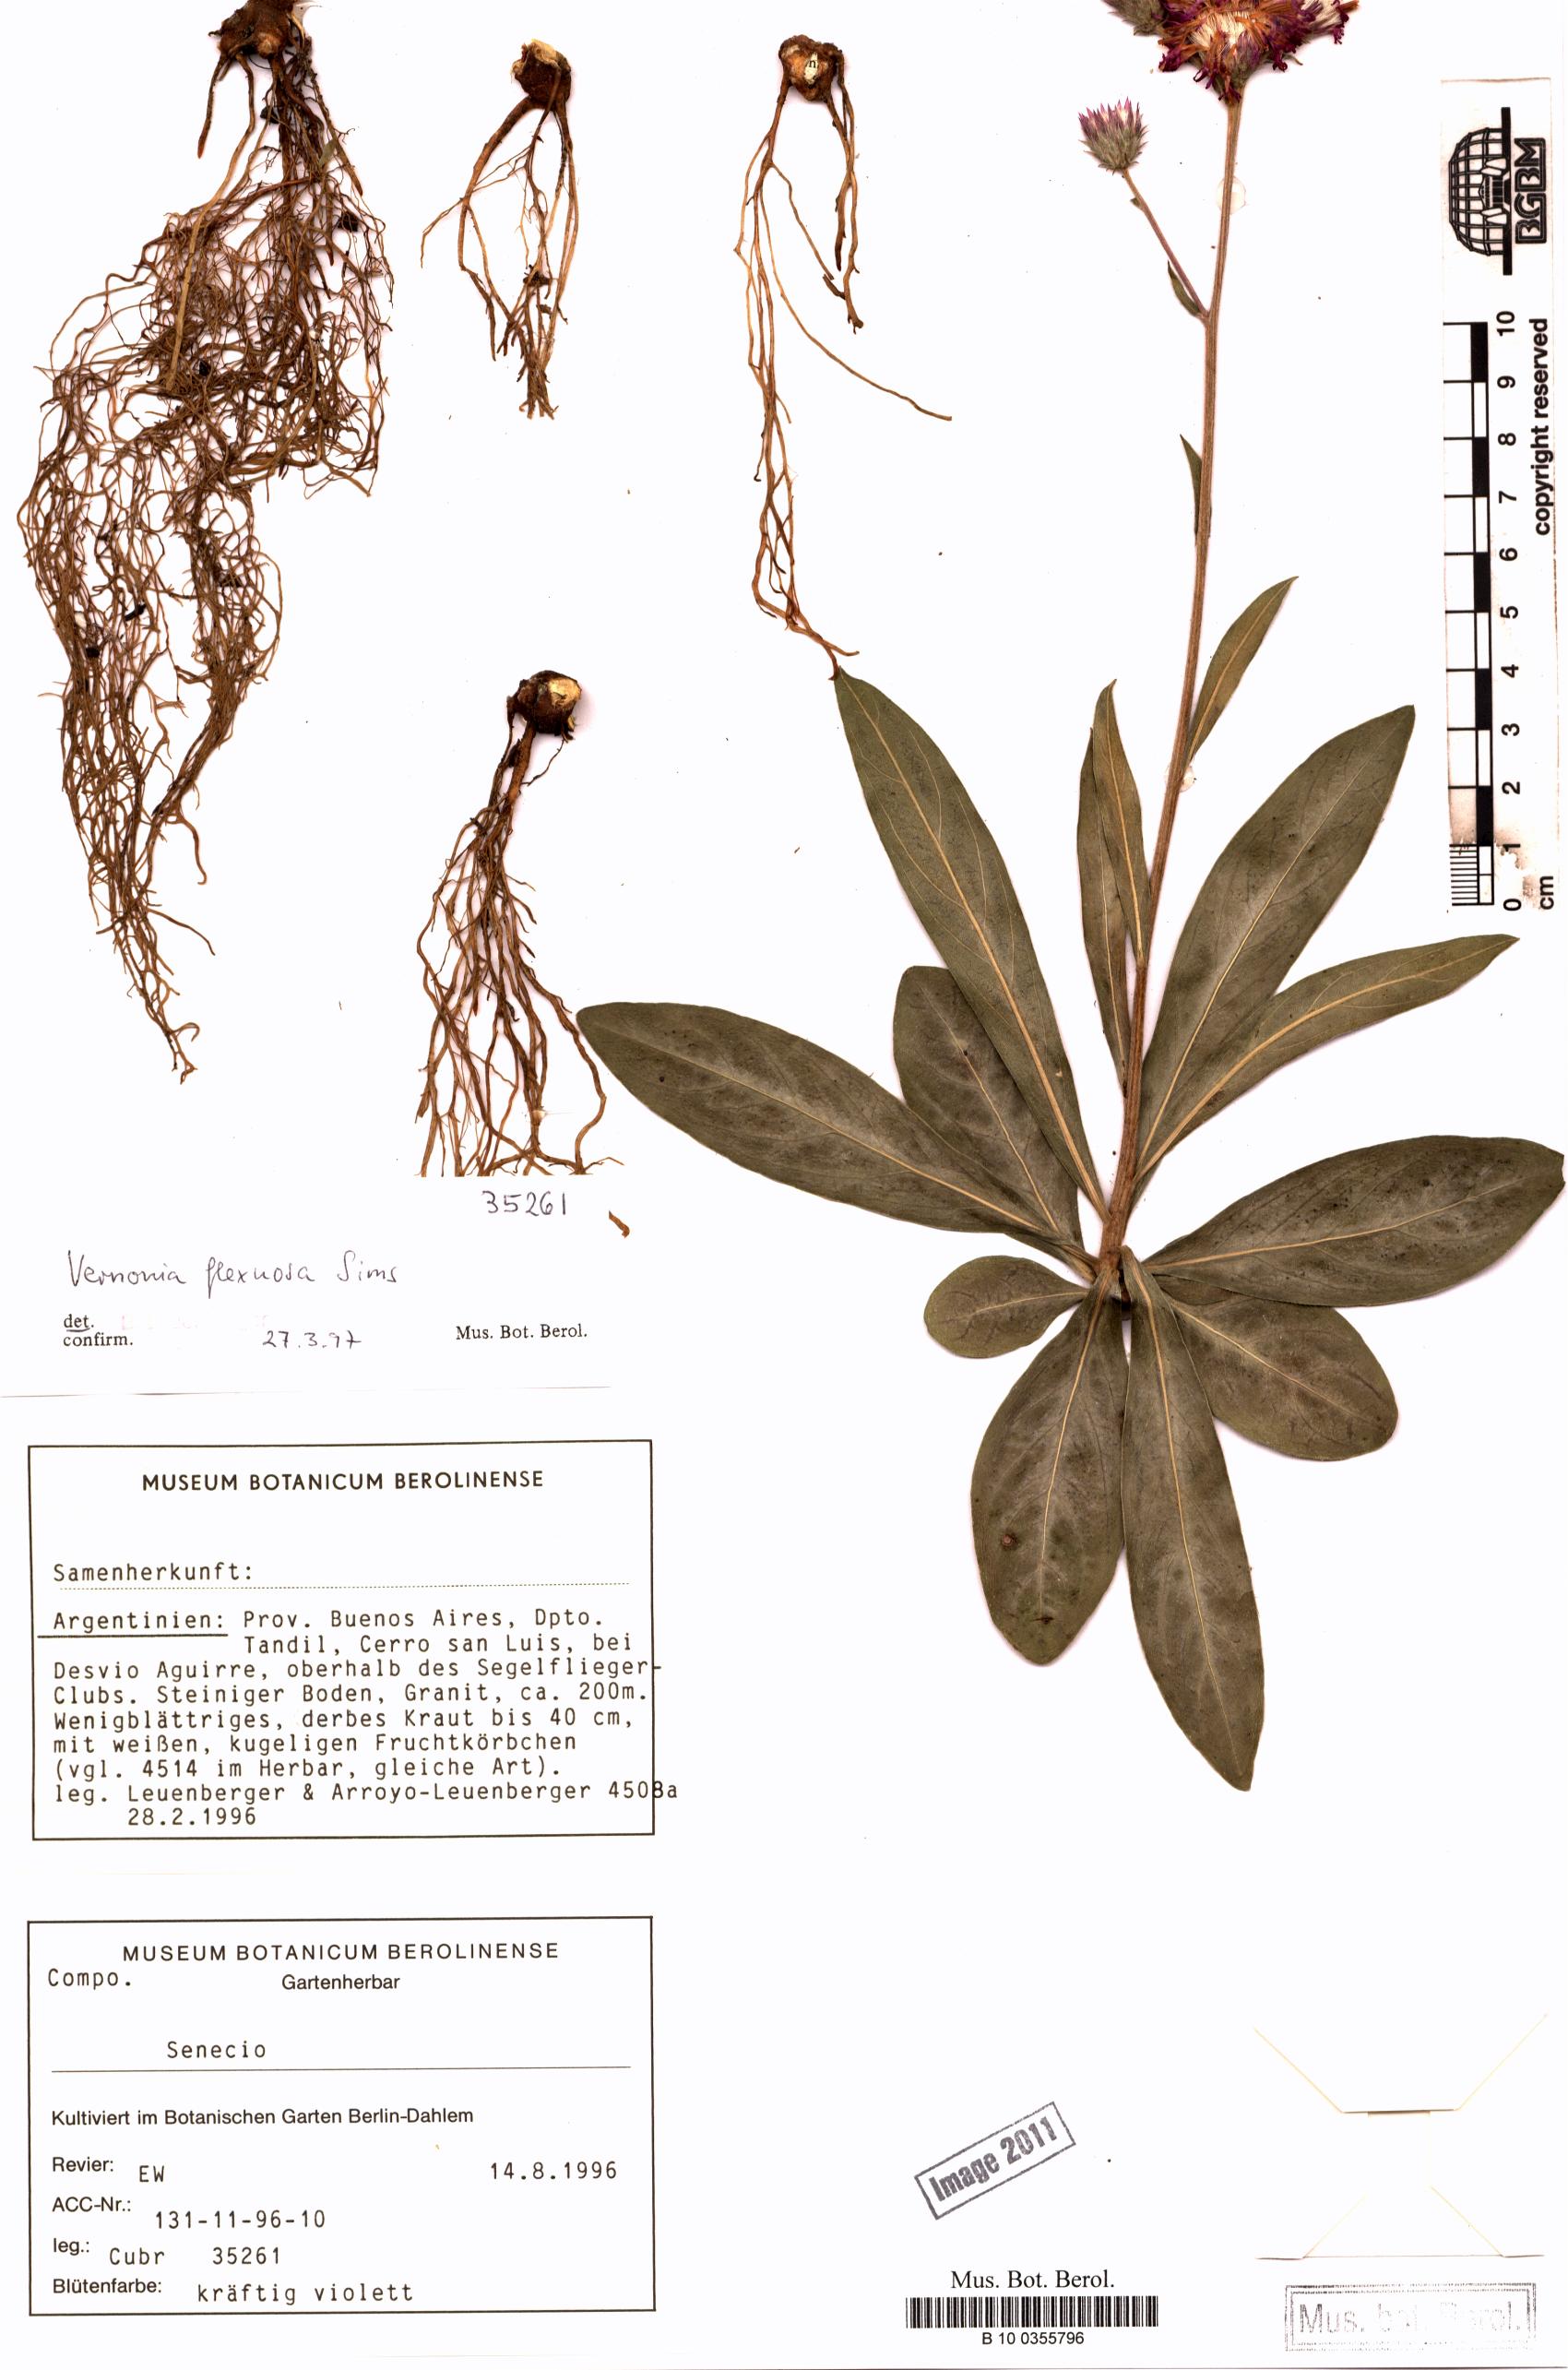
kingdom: Plantae
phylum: Tracheophyta
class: Magnoliopsida
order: Asterales
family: Asteraceae
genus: Chrysolaena
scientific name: Chrysolaena flexuosa
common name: Zig-zag vernonia
